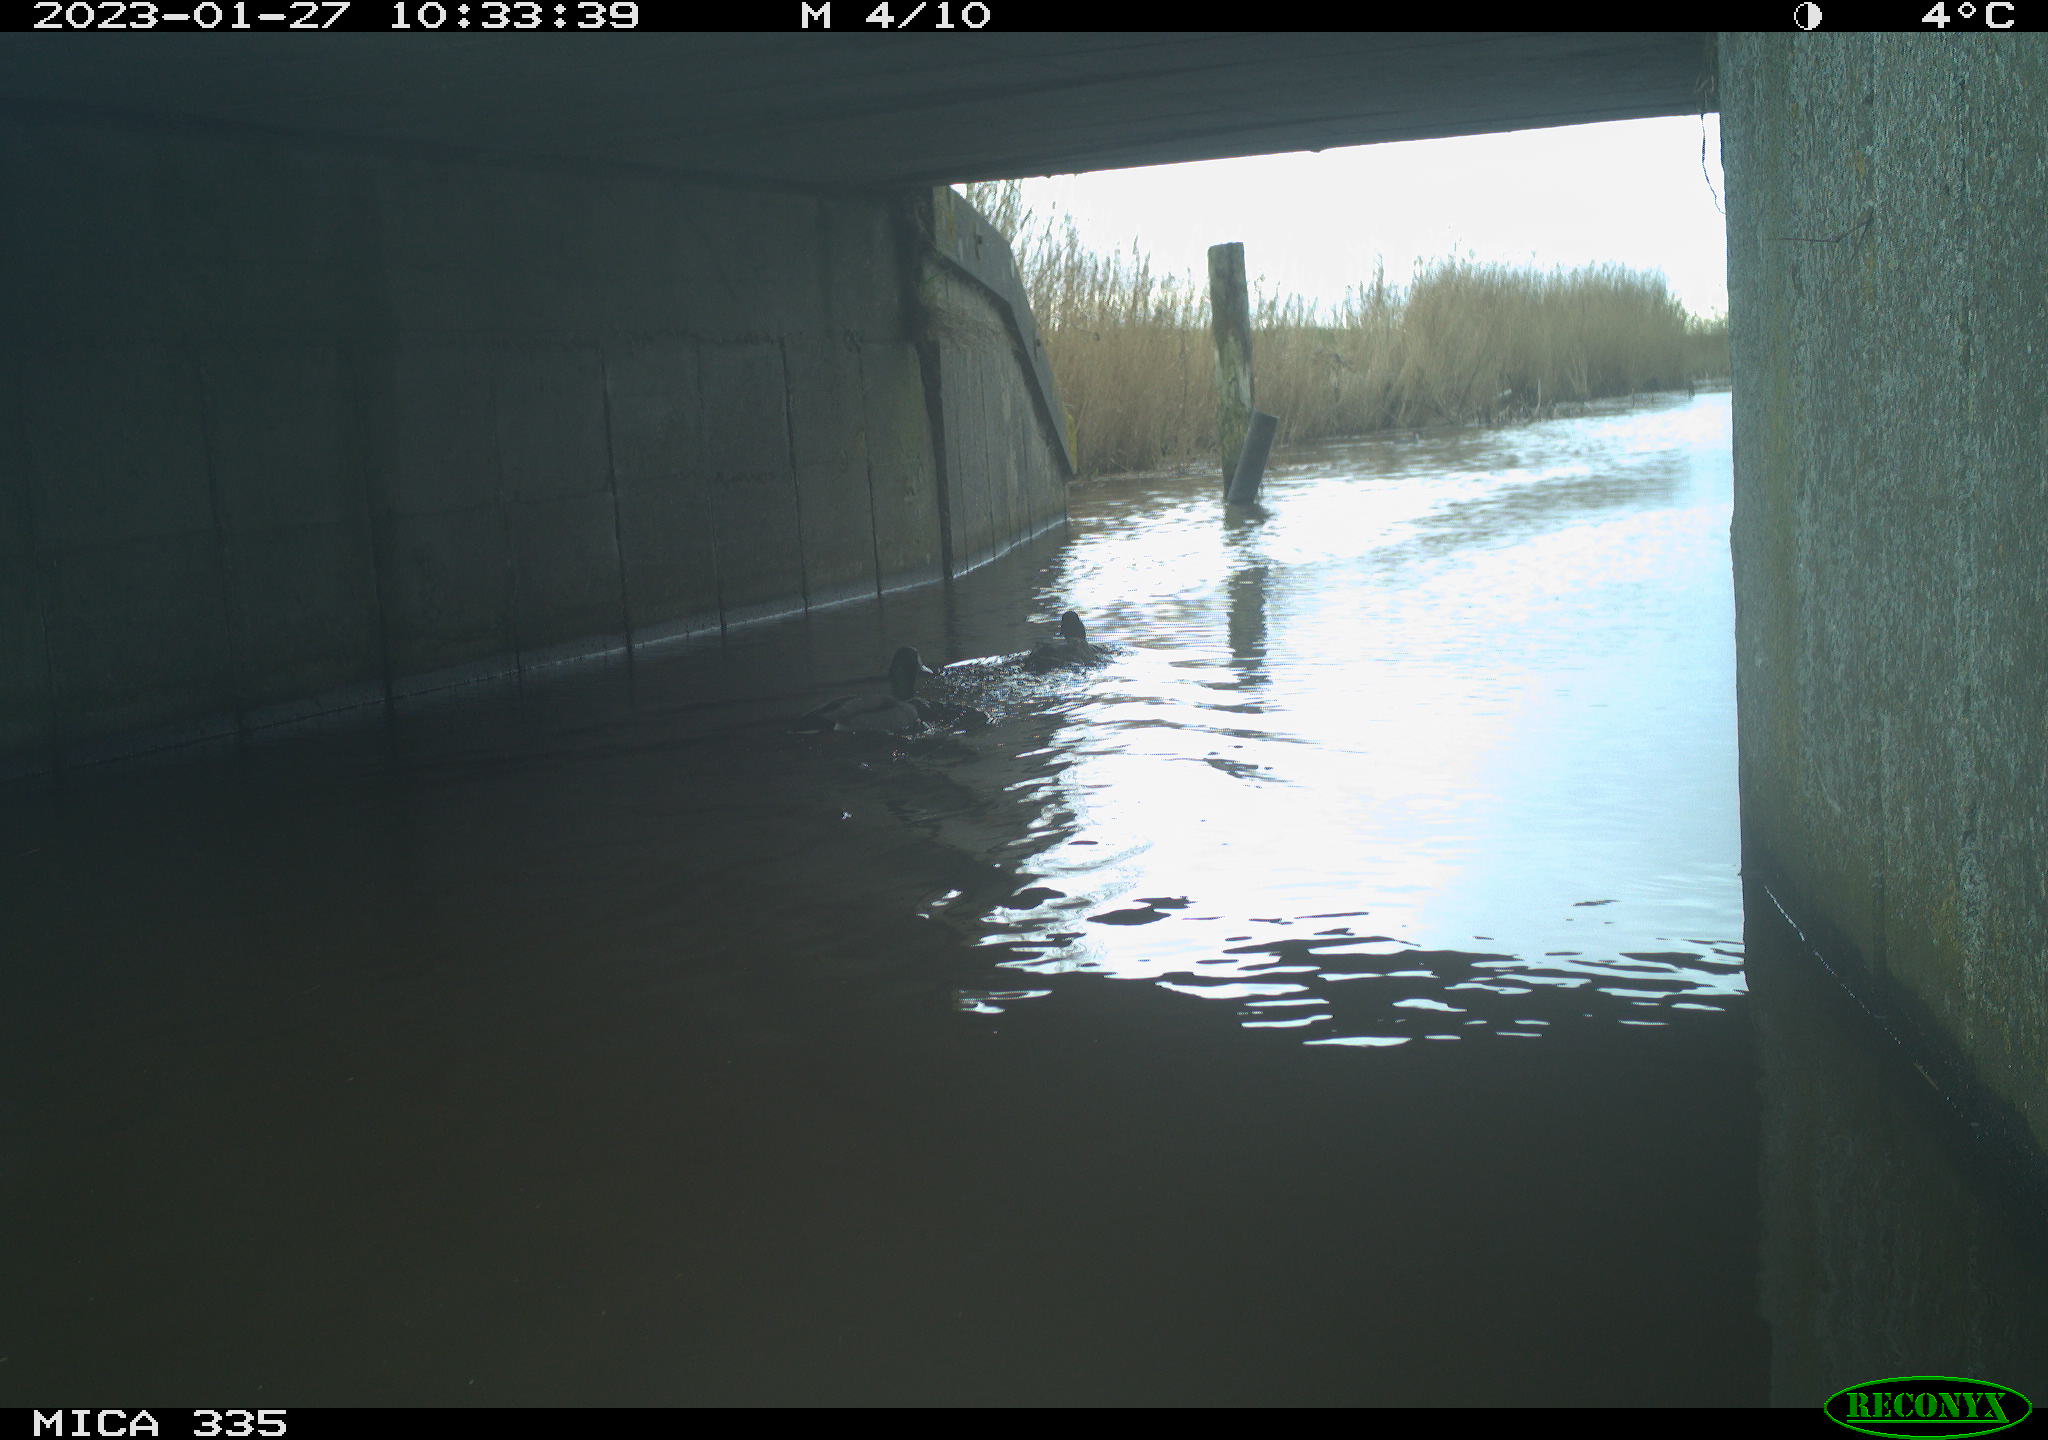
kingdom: Animalia
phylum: Chordata
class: Aves
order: Anseriformes
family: Anatidae
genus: Anas
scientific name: Anas
